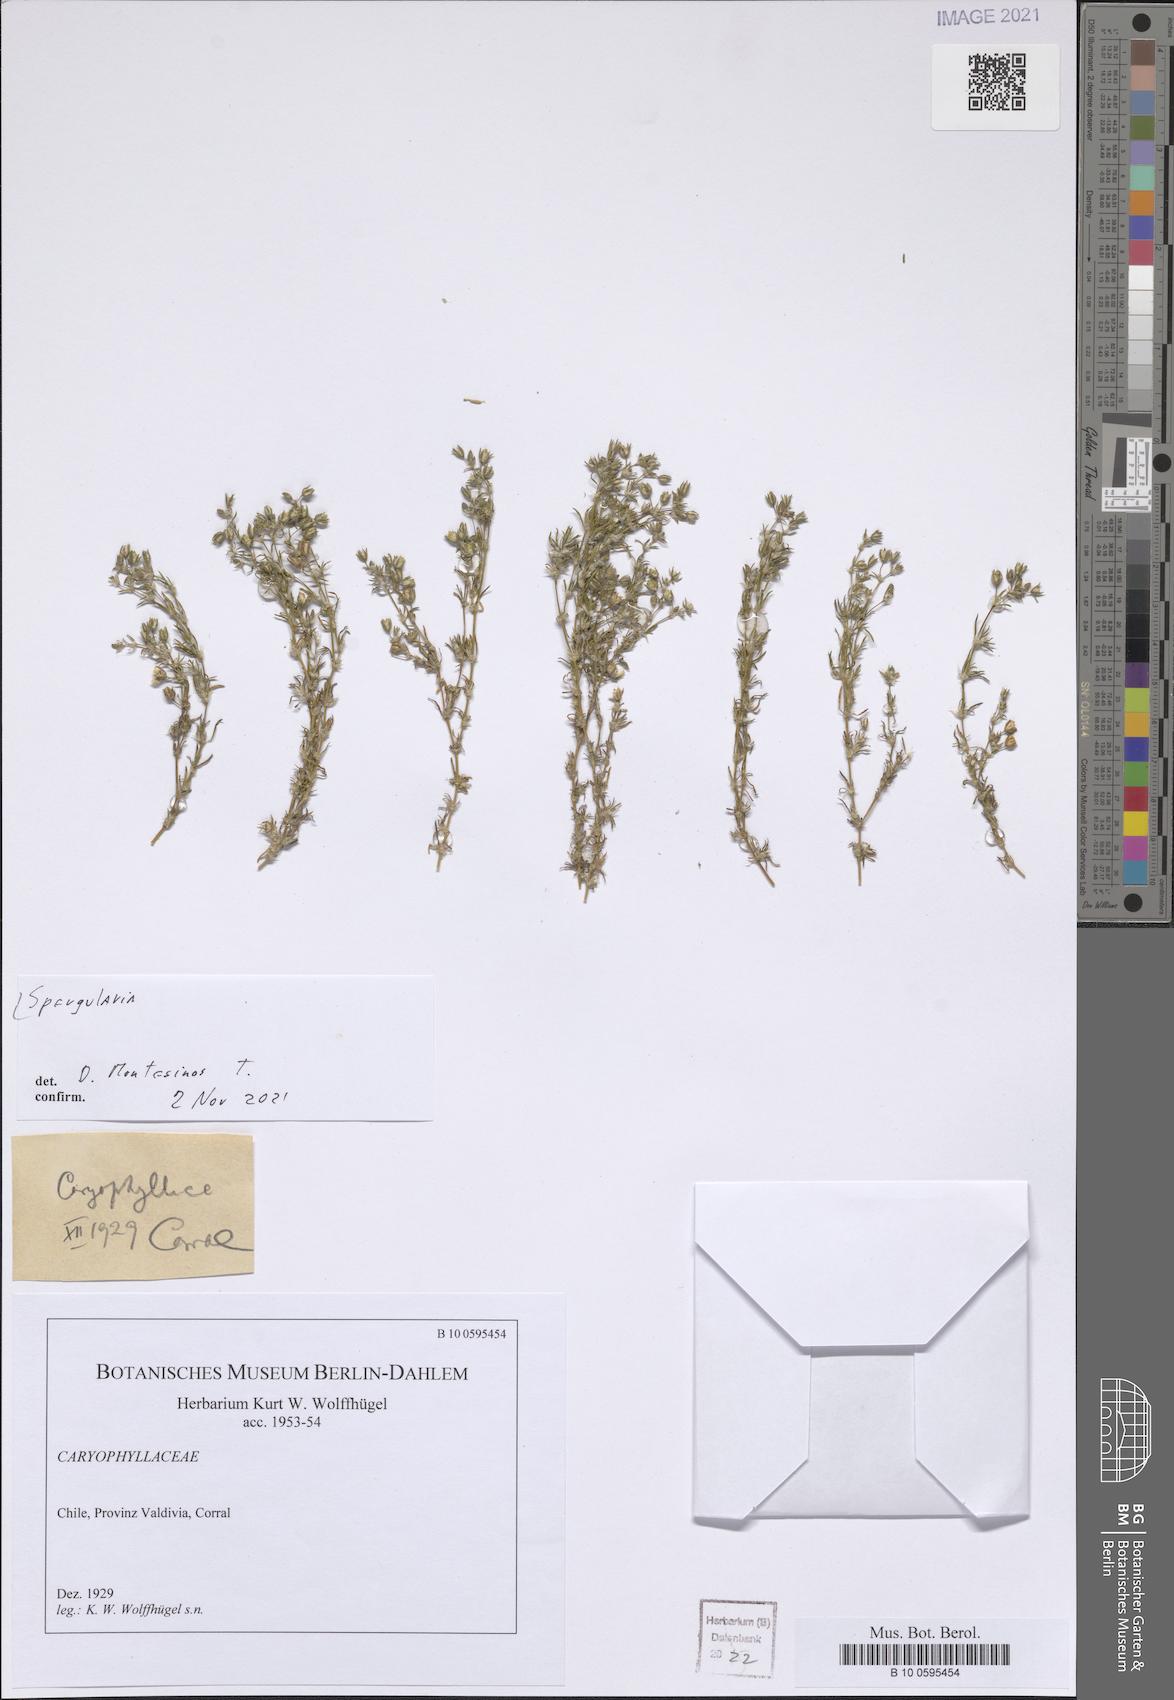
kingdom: Plantae
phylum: Tracheophyta
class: Magnoliopsida
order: Caryophyllales
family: Caryophyllaceae
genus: Spergularia
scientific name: Spergularia
